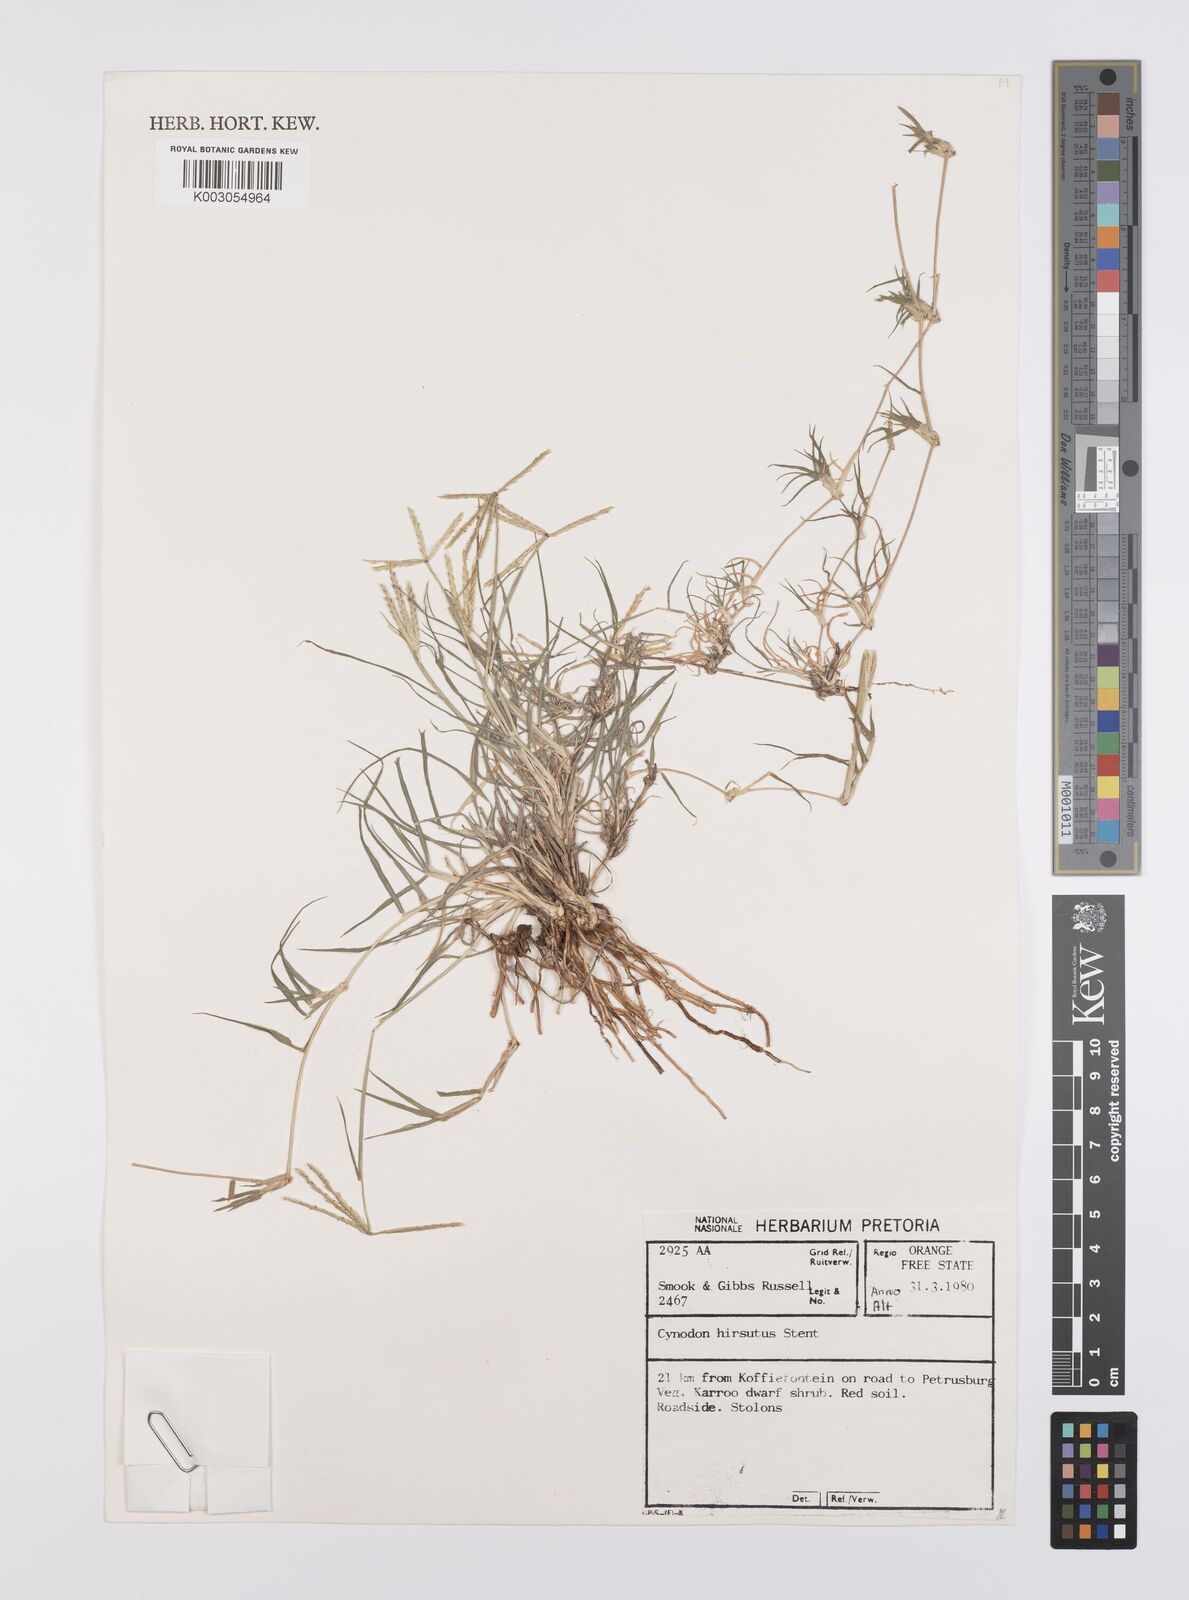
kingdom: Plantae
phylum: Tracheophyta
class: Liliopsida
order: Poales
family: Poaceae
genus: Cynodon
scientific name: Cynodon incompletus
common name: African bermuda-grass
